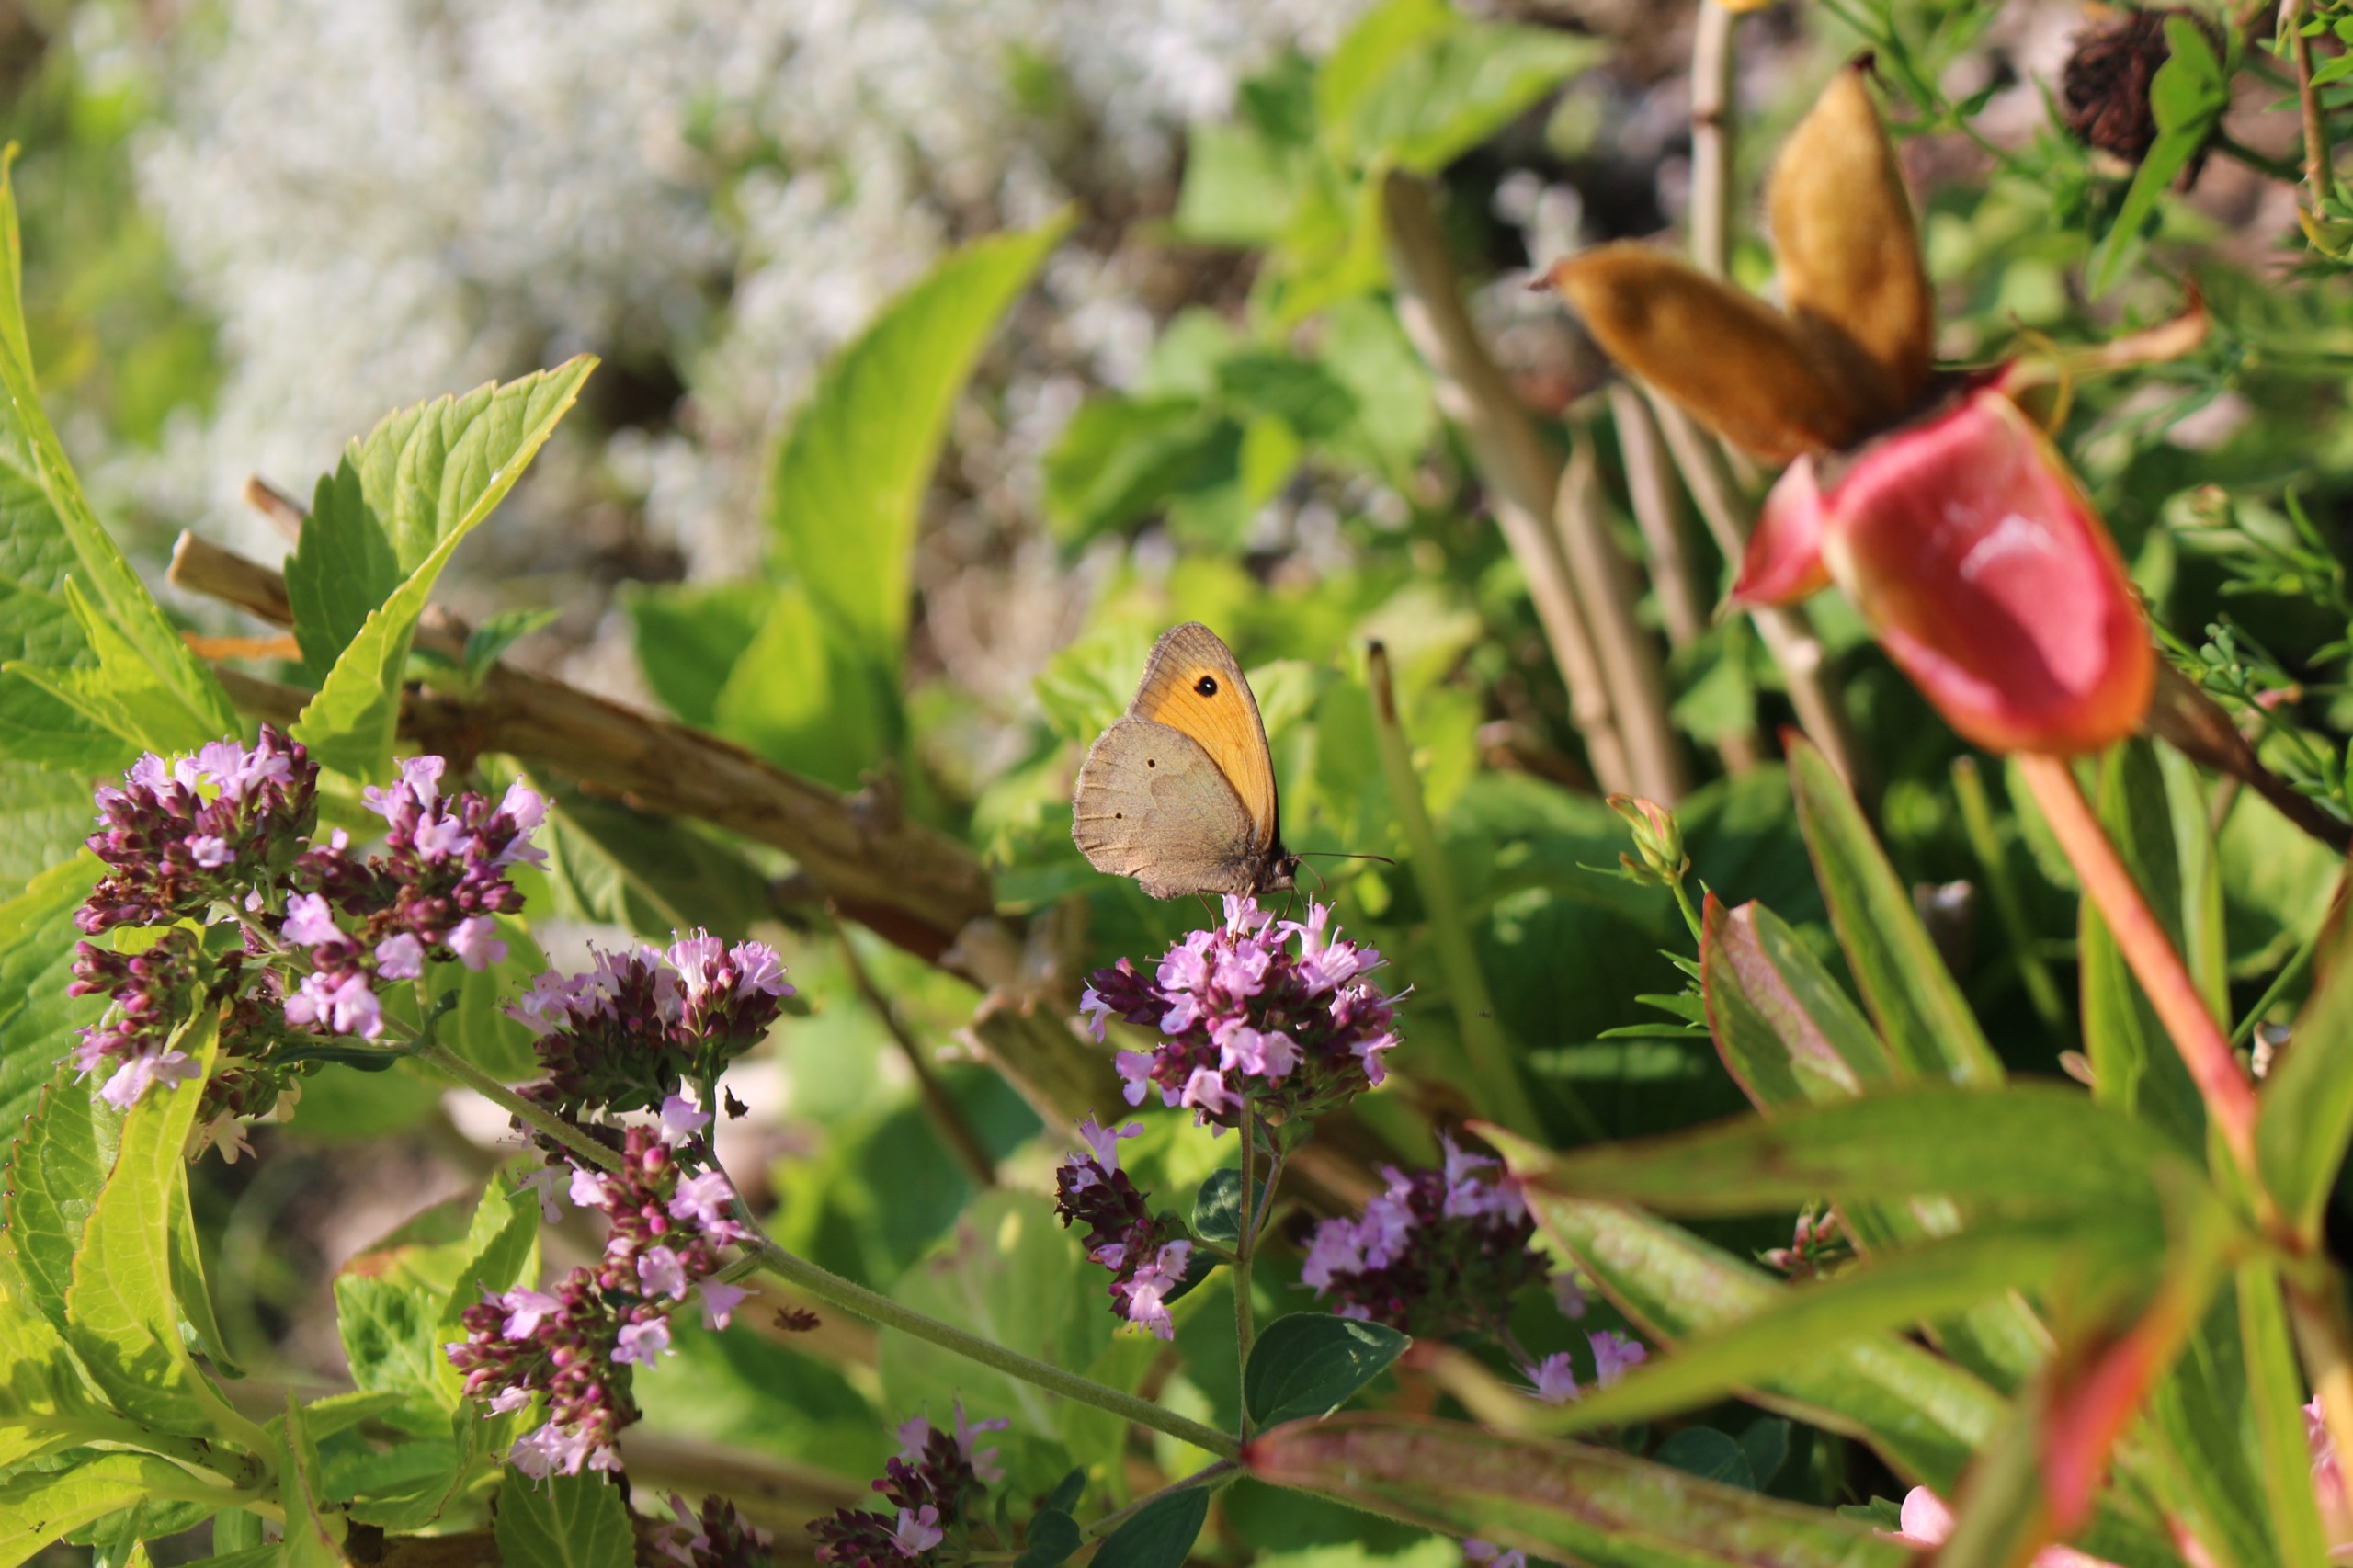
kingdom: Animalia
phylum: Arthropoda
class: Insecta
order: Lepidoptera
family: Nymphalidae
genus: Maniola
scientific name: Maniola jurtina
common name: Græsrandøje
